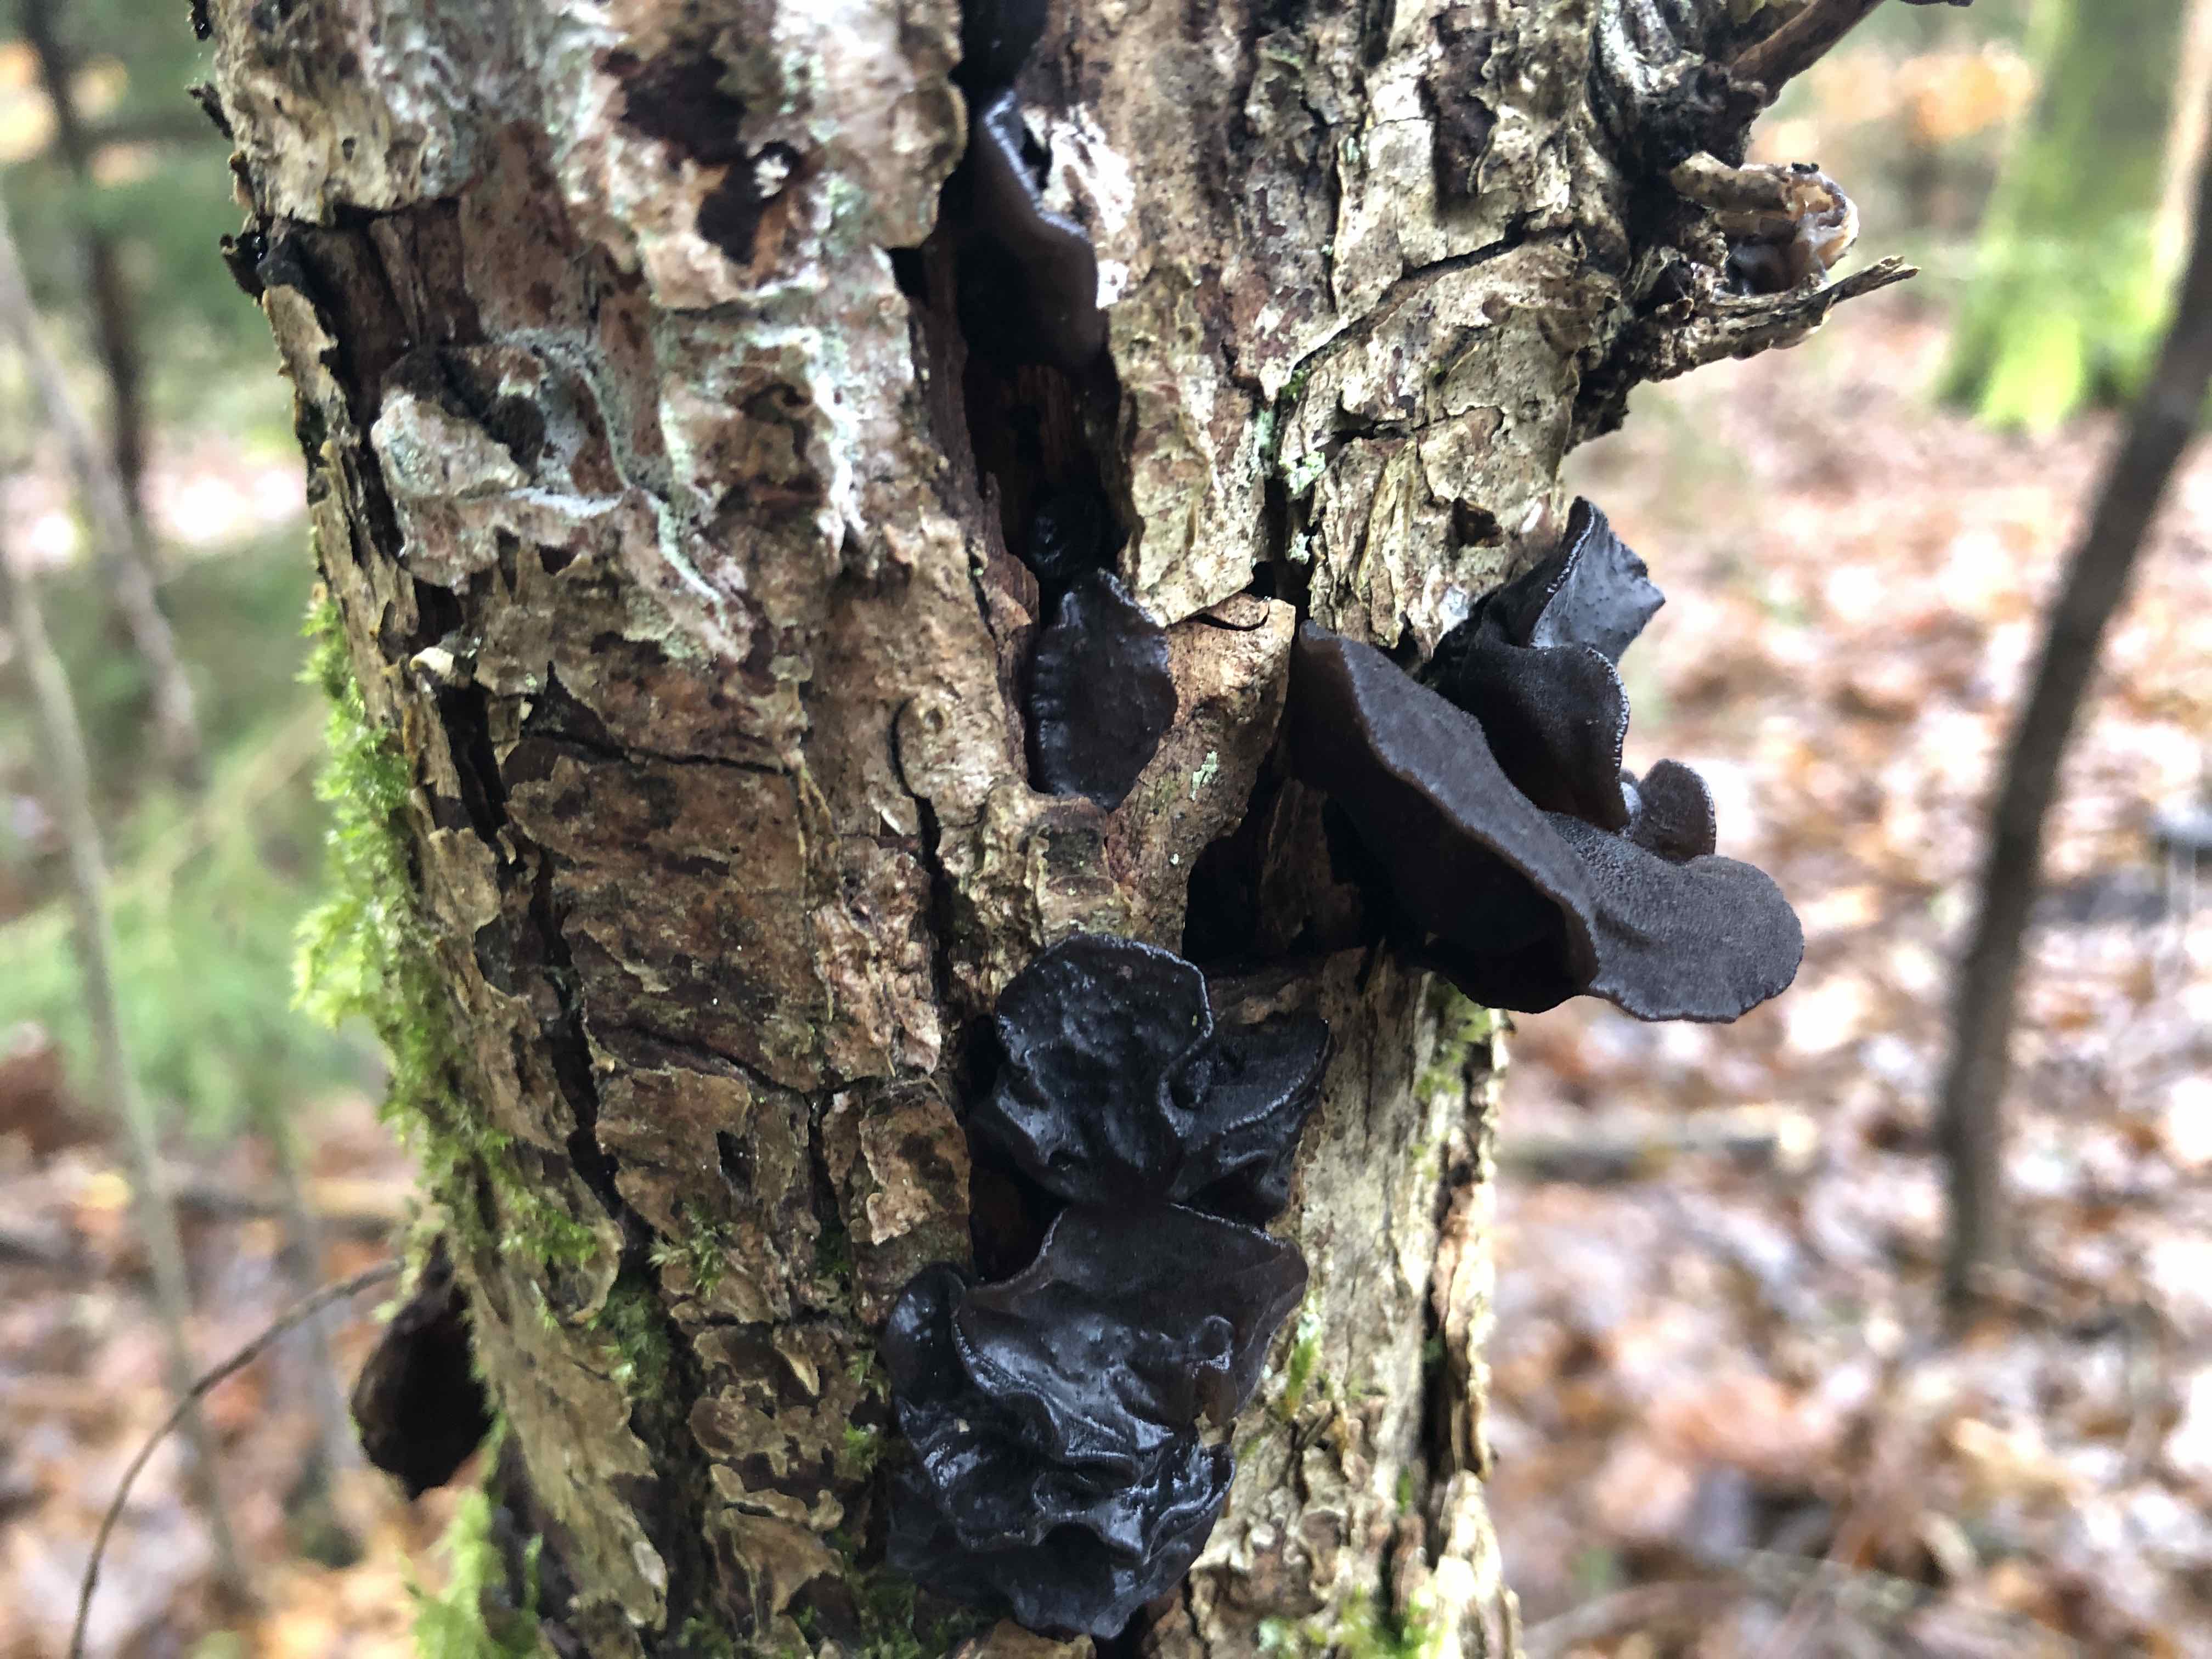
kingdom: Fungi
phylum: Basidiomycota
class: Agaricomycetes
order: Auriculariales
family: Auriculariaceae
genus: Exidia
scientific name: Exidia glandulosa
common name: ege-bævretop
